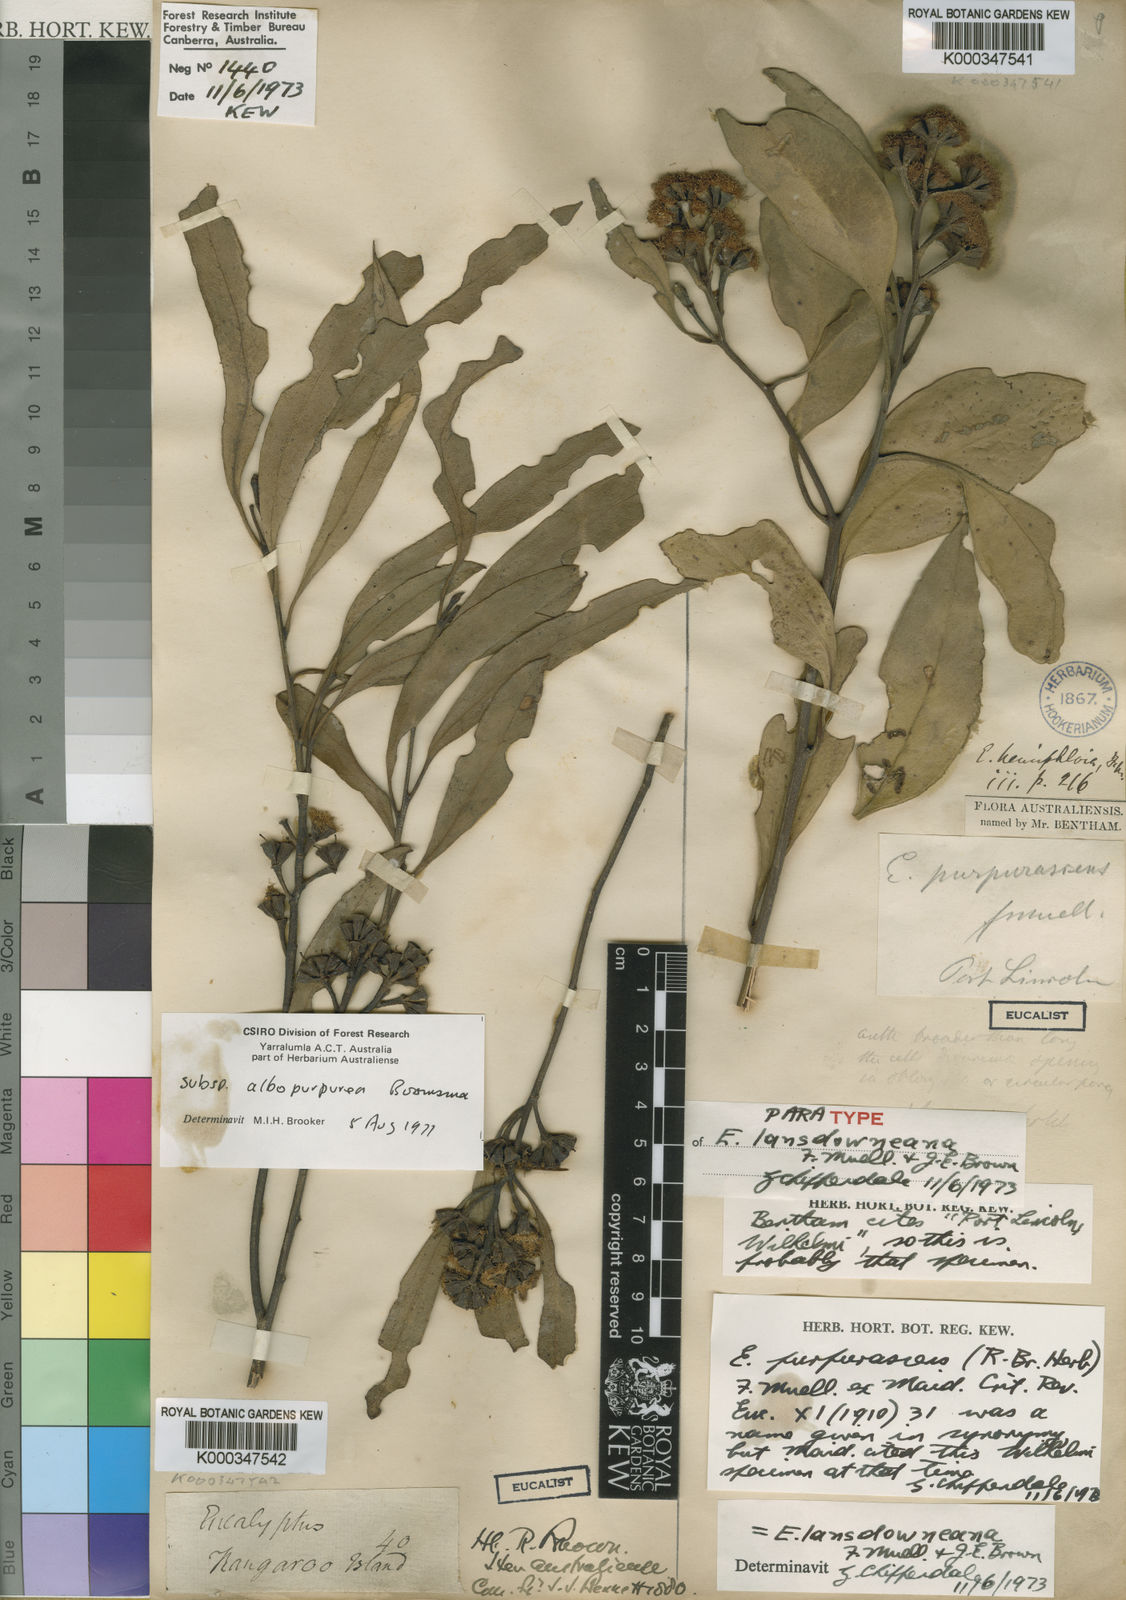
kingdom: Plantae
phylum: Tracheophyta
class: Magnoliopsida
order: Myrtales
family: Myrtaceae
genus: Eucalyptus
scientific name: Eucalyptus lansdowneana
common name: Crimson mallee
